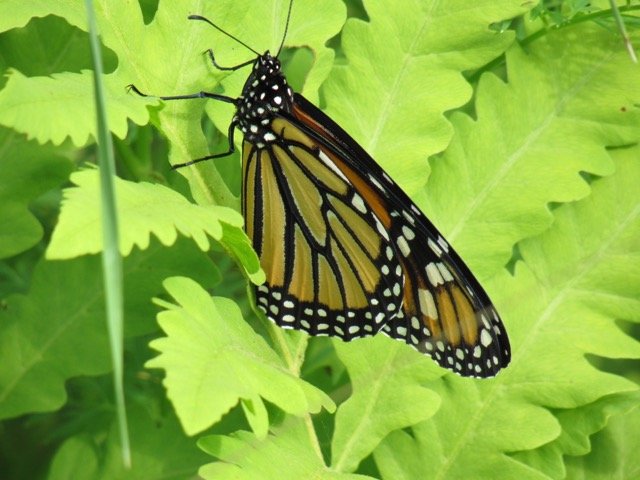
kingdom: Animalia
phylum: Arthropoda
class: Insecta
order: Lepidoptera
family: Nymphalidae
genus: Danaus
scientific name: Danaus plexippus
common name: Monarch
